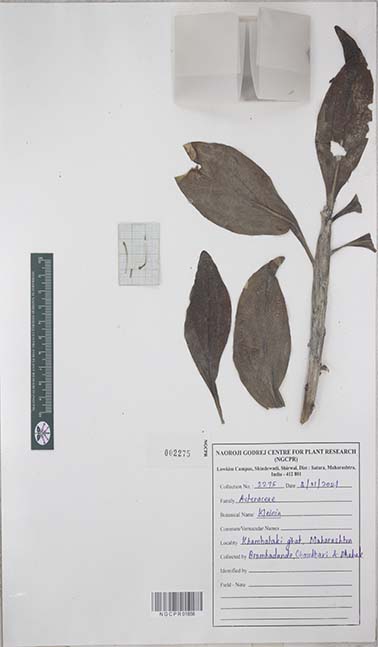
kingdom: Plantae
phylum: Tracheophyta
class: Magnoliopsida
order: Asterales
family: Asteraceae
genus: Kleinia
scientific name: Kleinia
